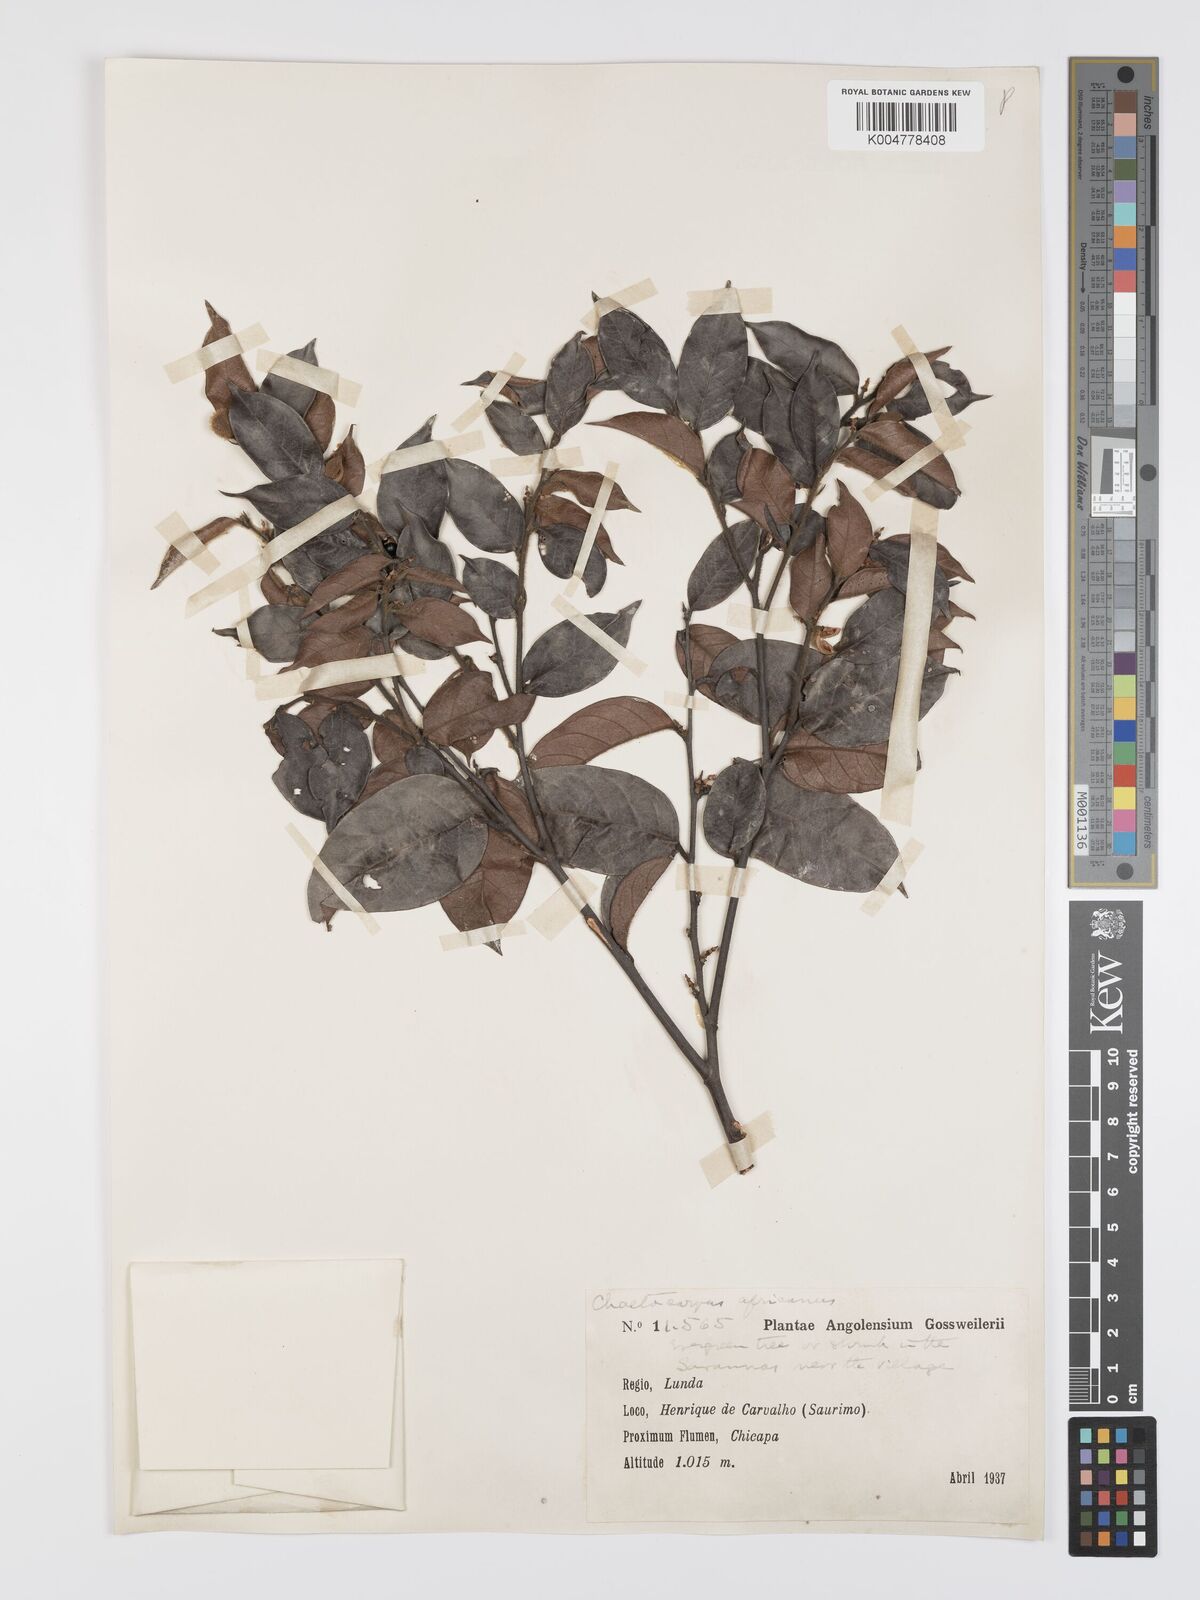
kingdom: Plantae
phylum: Tracheophyta
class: Magnoliopsida
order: Malpighiales
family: Peraceae
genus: Chaetocarpus
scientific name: Chaetocarpus africanus
